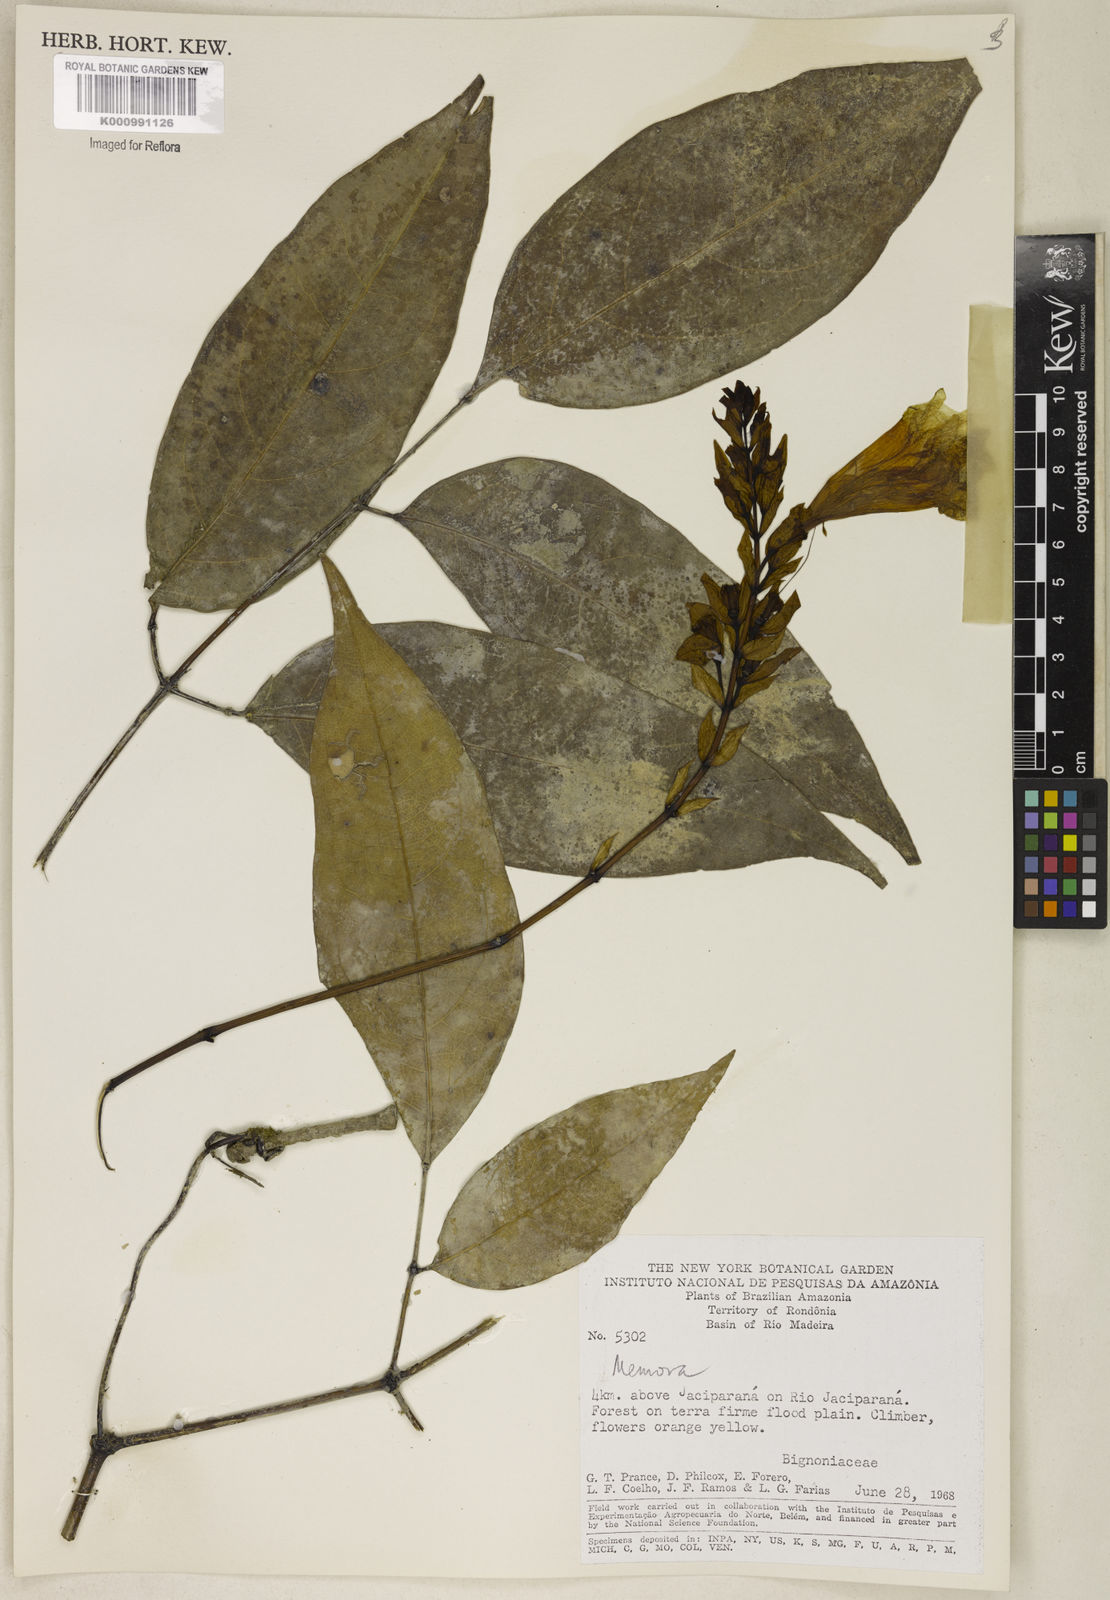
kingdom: Plantae
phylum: Tracheophyta
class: Magnoliopsida
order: Lamiales
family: Bignoniaceae
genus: Adenocalymma
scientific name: Adenocalymma
